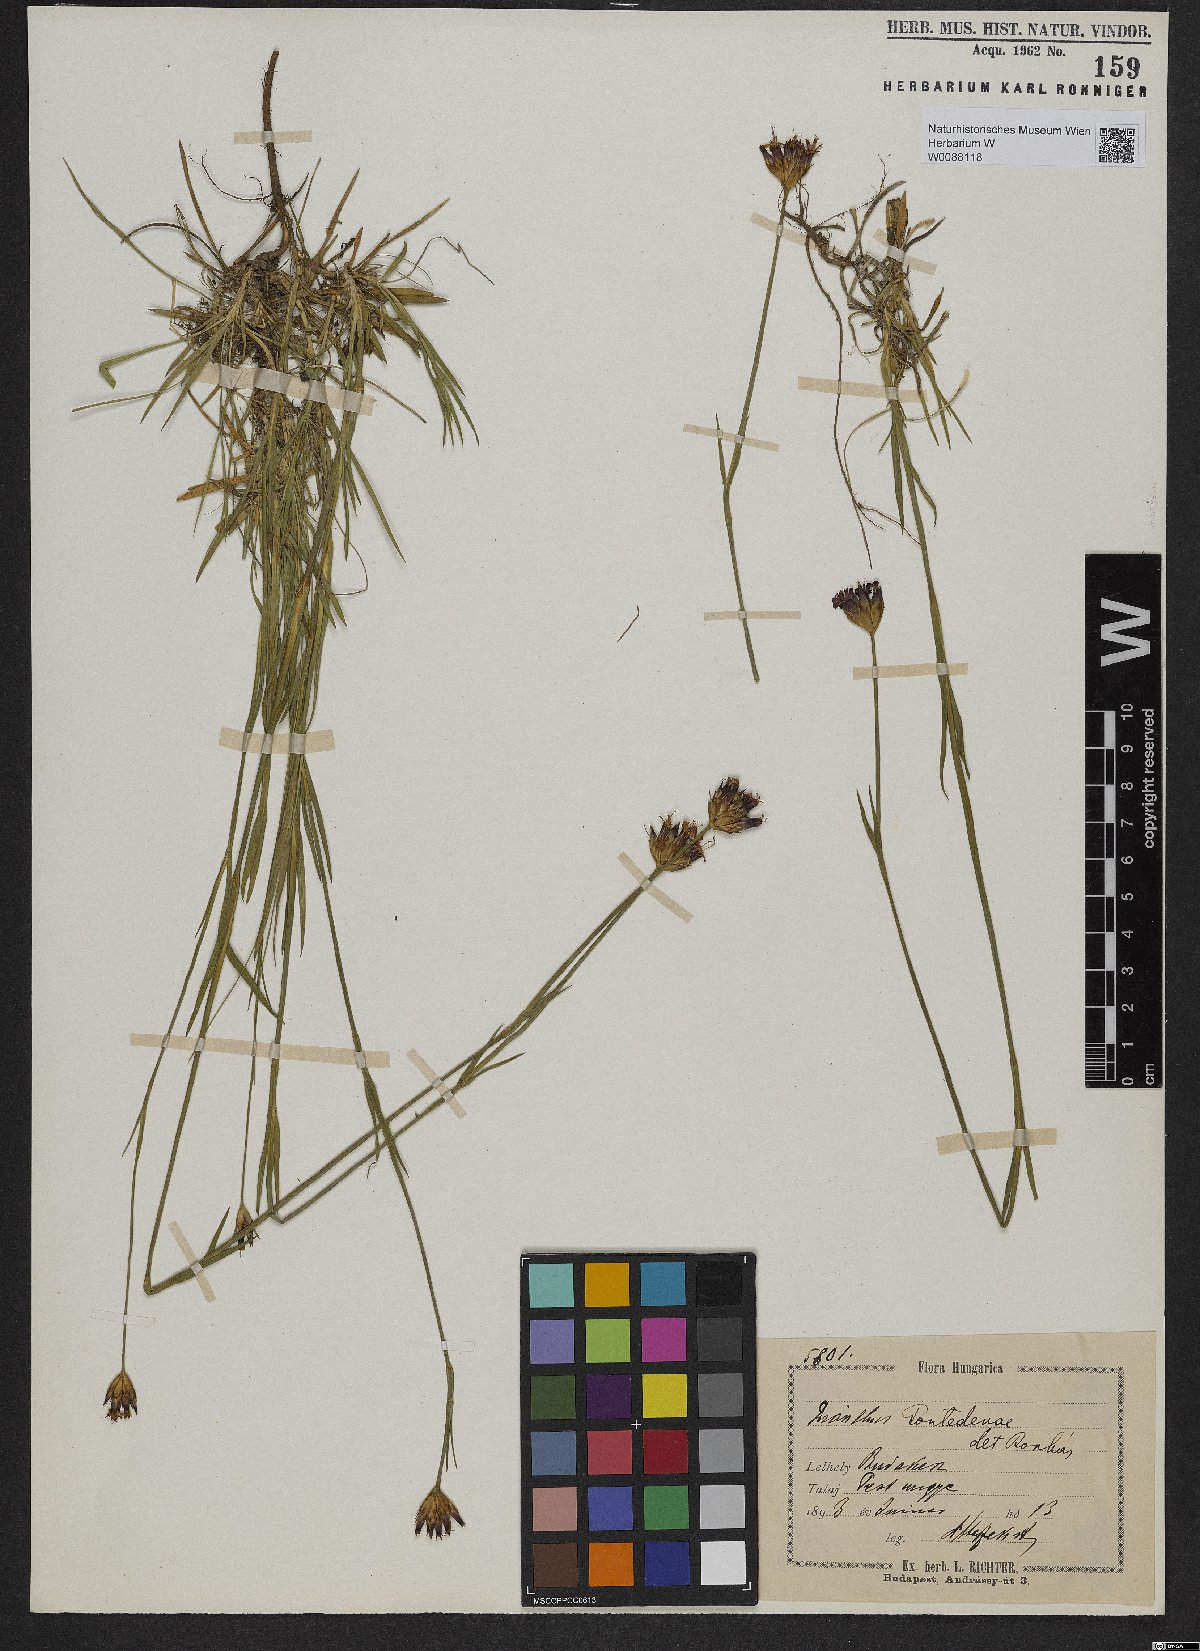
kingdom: Plantae
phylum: Tracheophyta
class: Magnoliopsida
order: Caryophyllales
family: Caryophyllaceae
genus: Dianthus
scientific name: Dianthus pontederae
